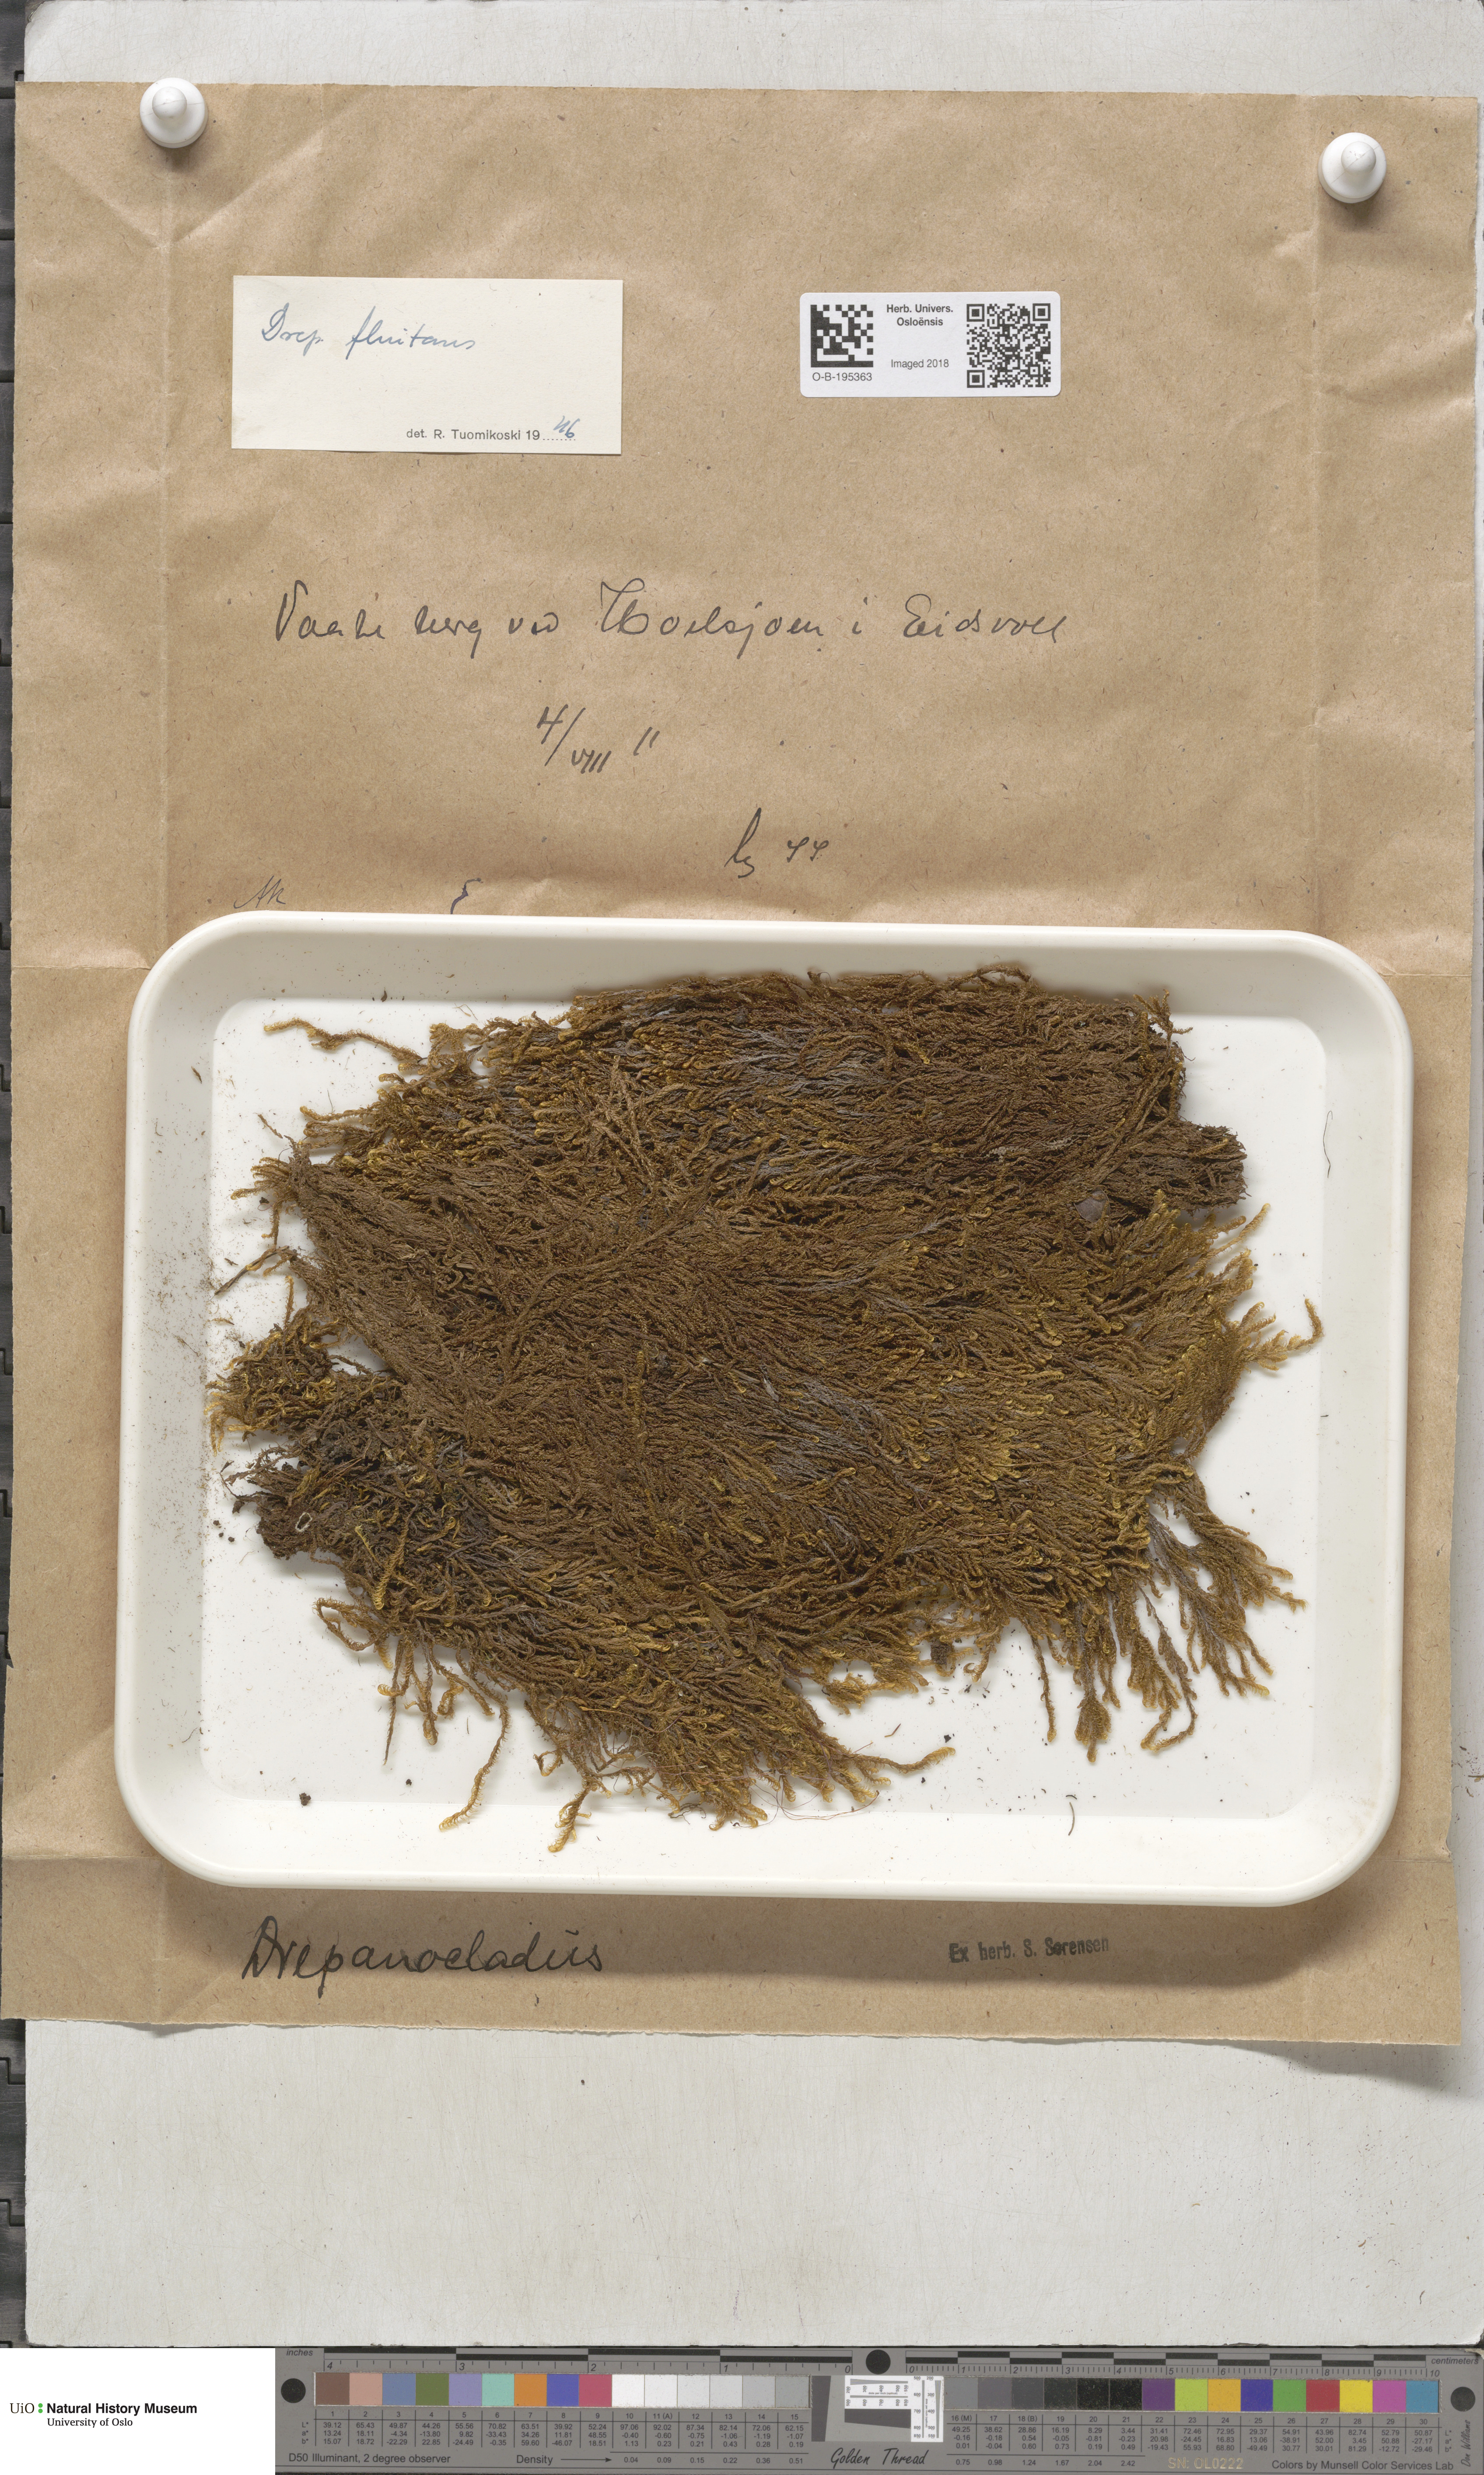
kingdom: Plantae
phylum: Bryophyta
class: Bryopsida
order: Hypnales
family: Calliergonaceae
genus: Warnstorfia
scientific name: Warnstorfia fluitans
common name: Floating hook moss
